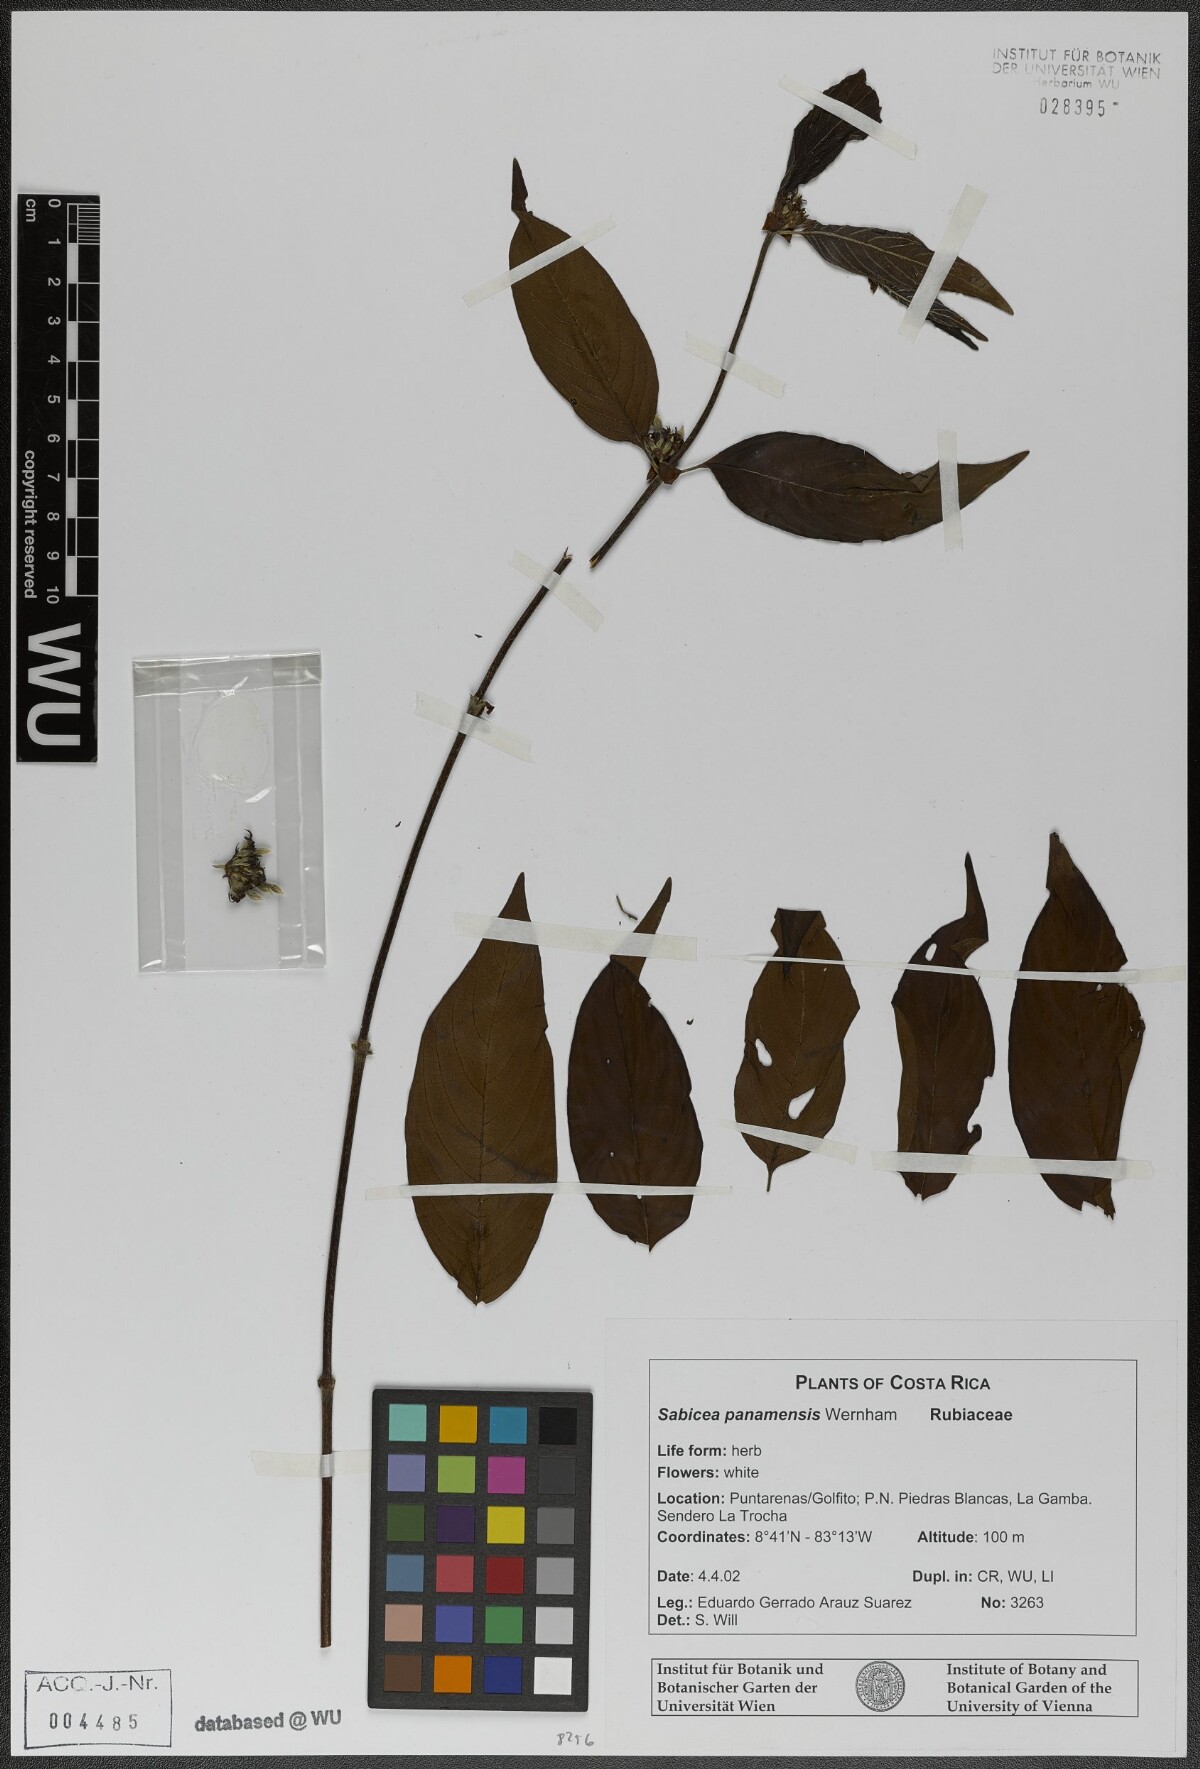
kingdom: Plantae
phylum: Tracheophyta
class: Magnoliopsida
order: Gentianales
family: Rubiaceae
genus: Sabicea
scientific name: Sabicea panamensis
